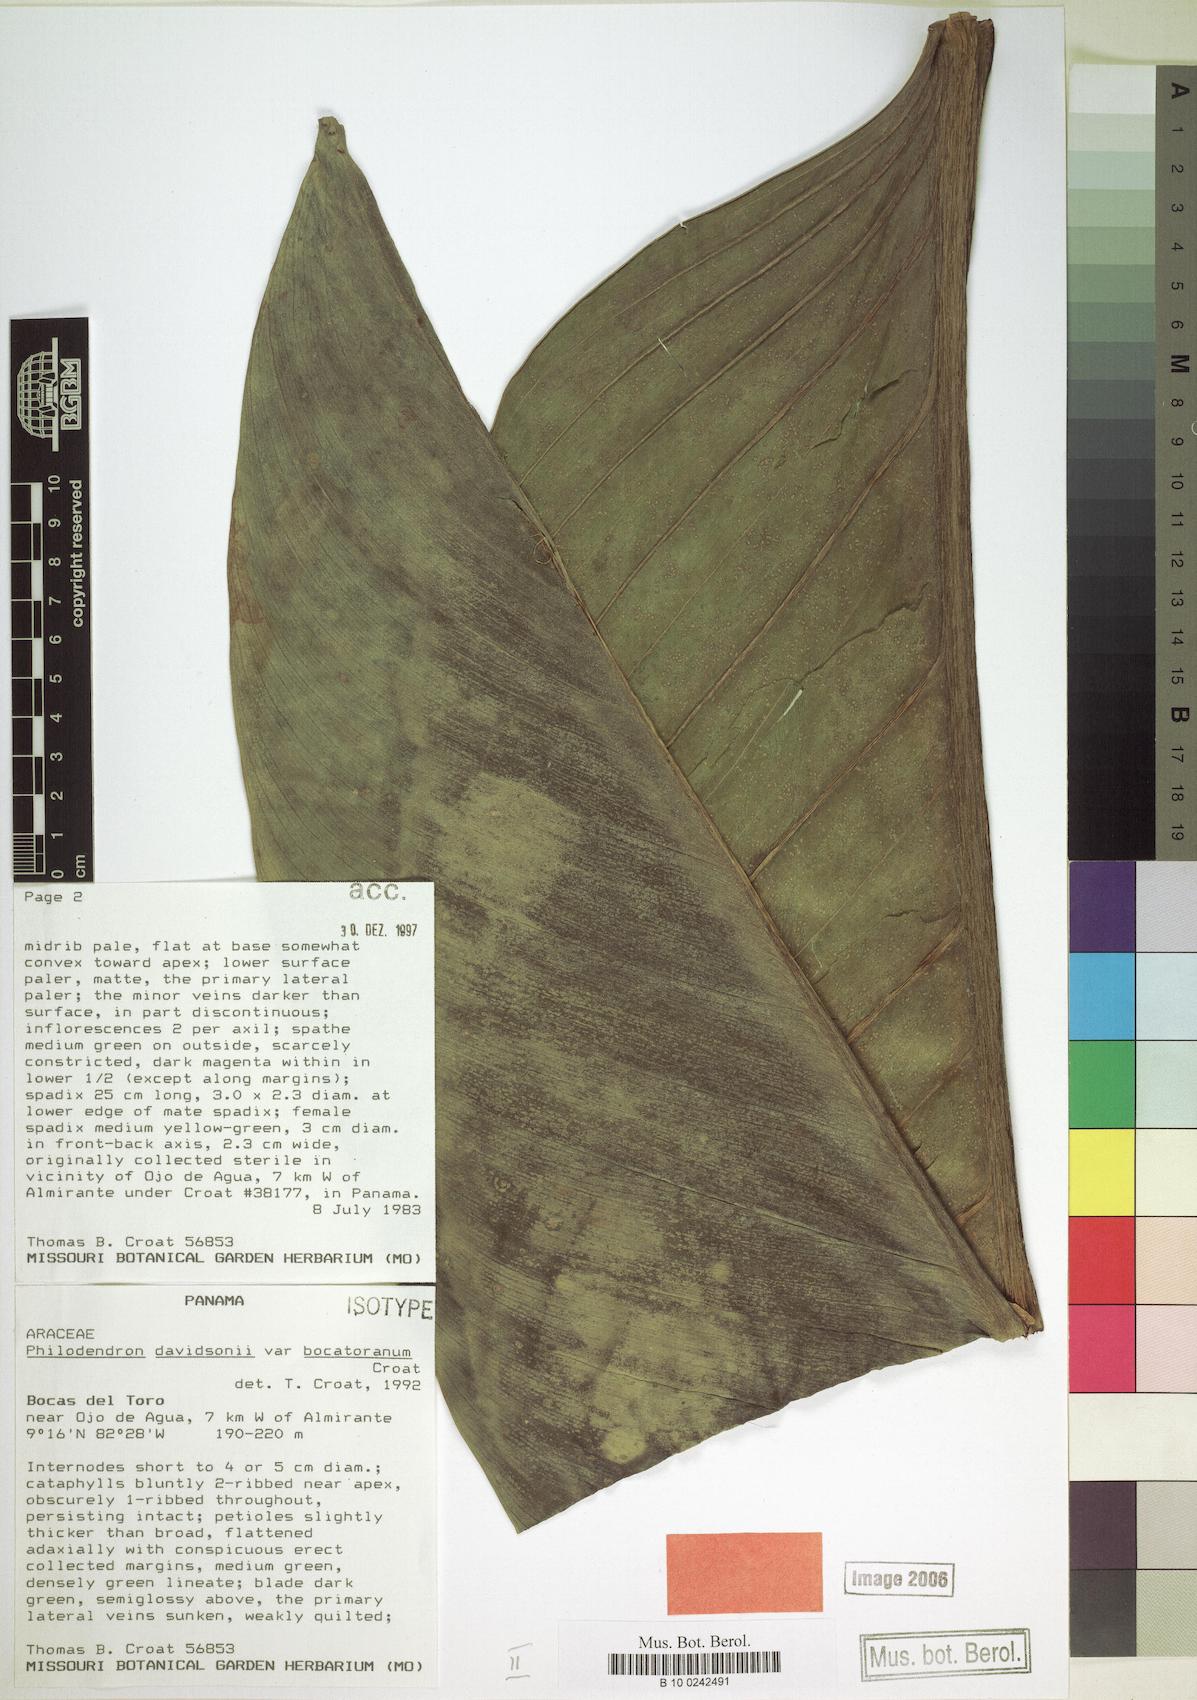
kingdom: Plantae
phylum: Tracheophyta
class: Liliopsida
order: Alismatales
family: Araceae
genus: Philodendron
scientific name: Philodendron davidsonii
